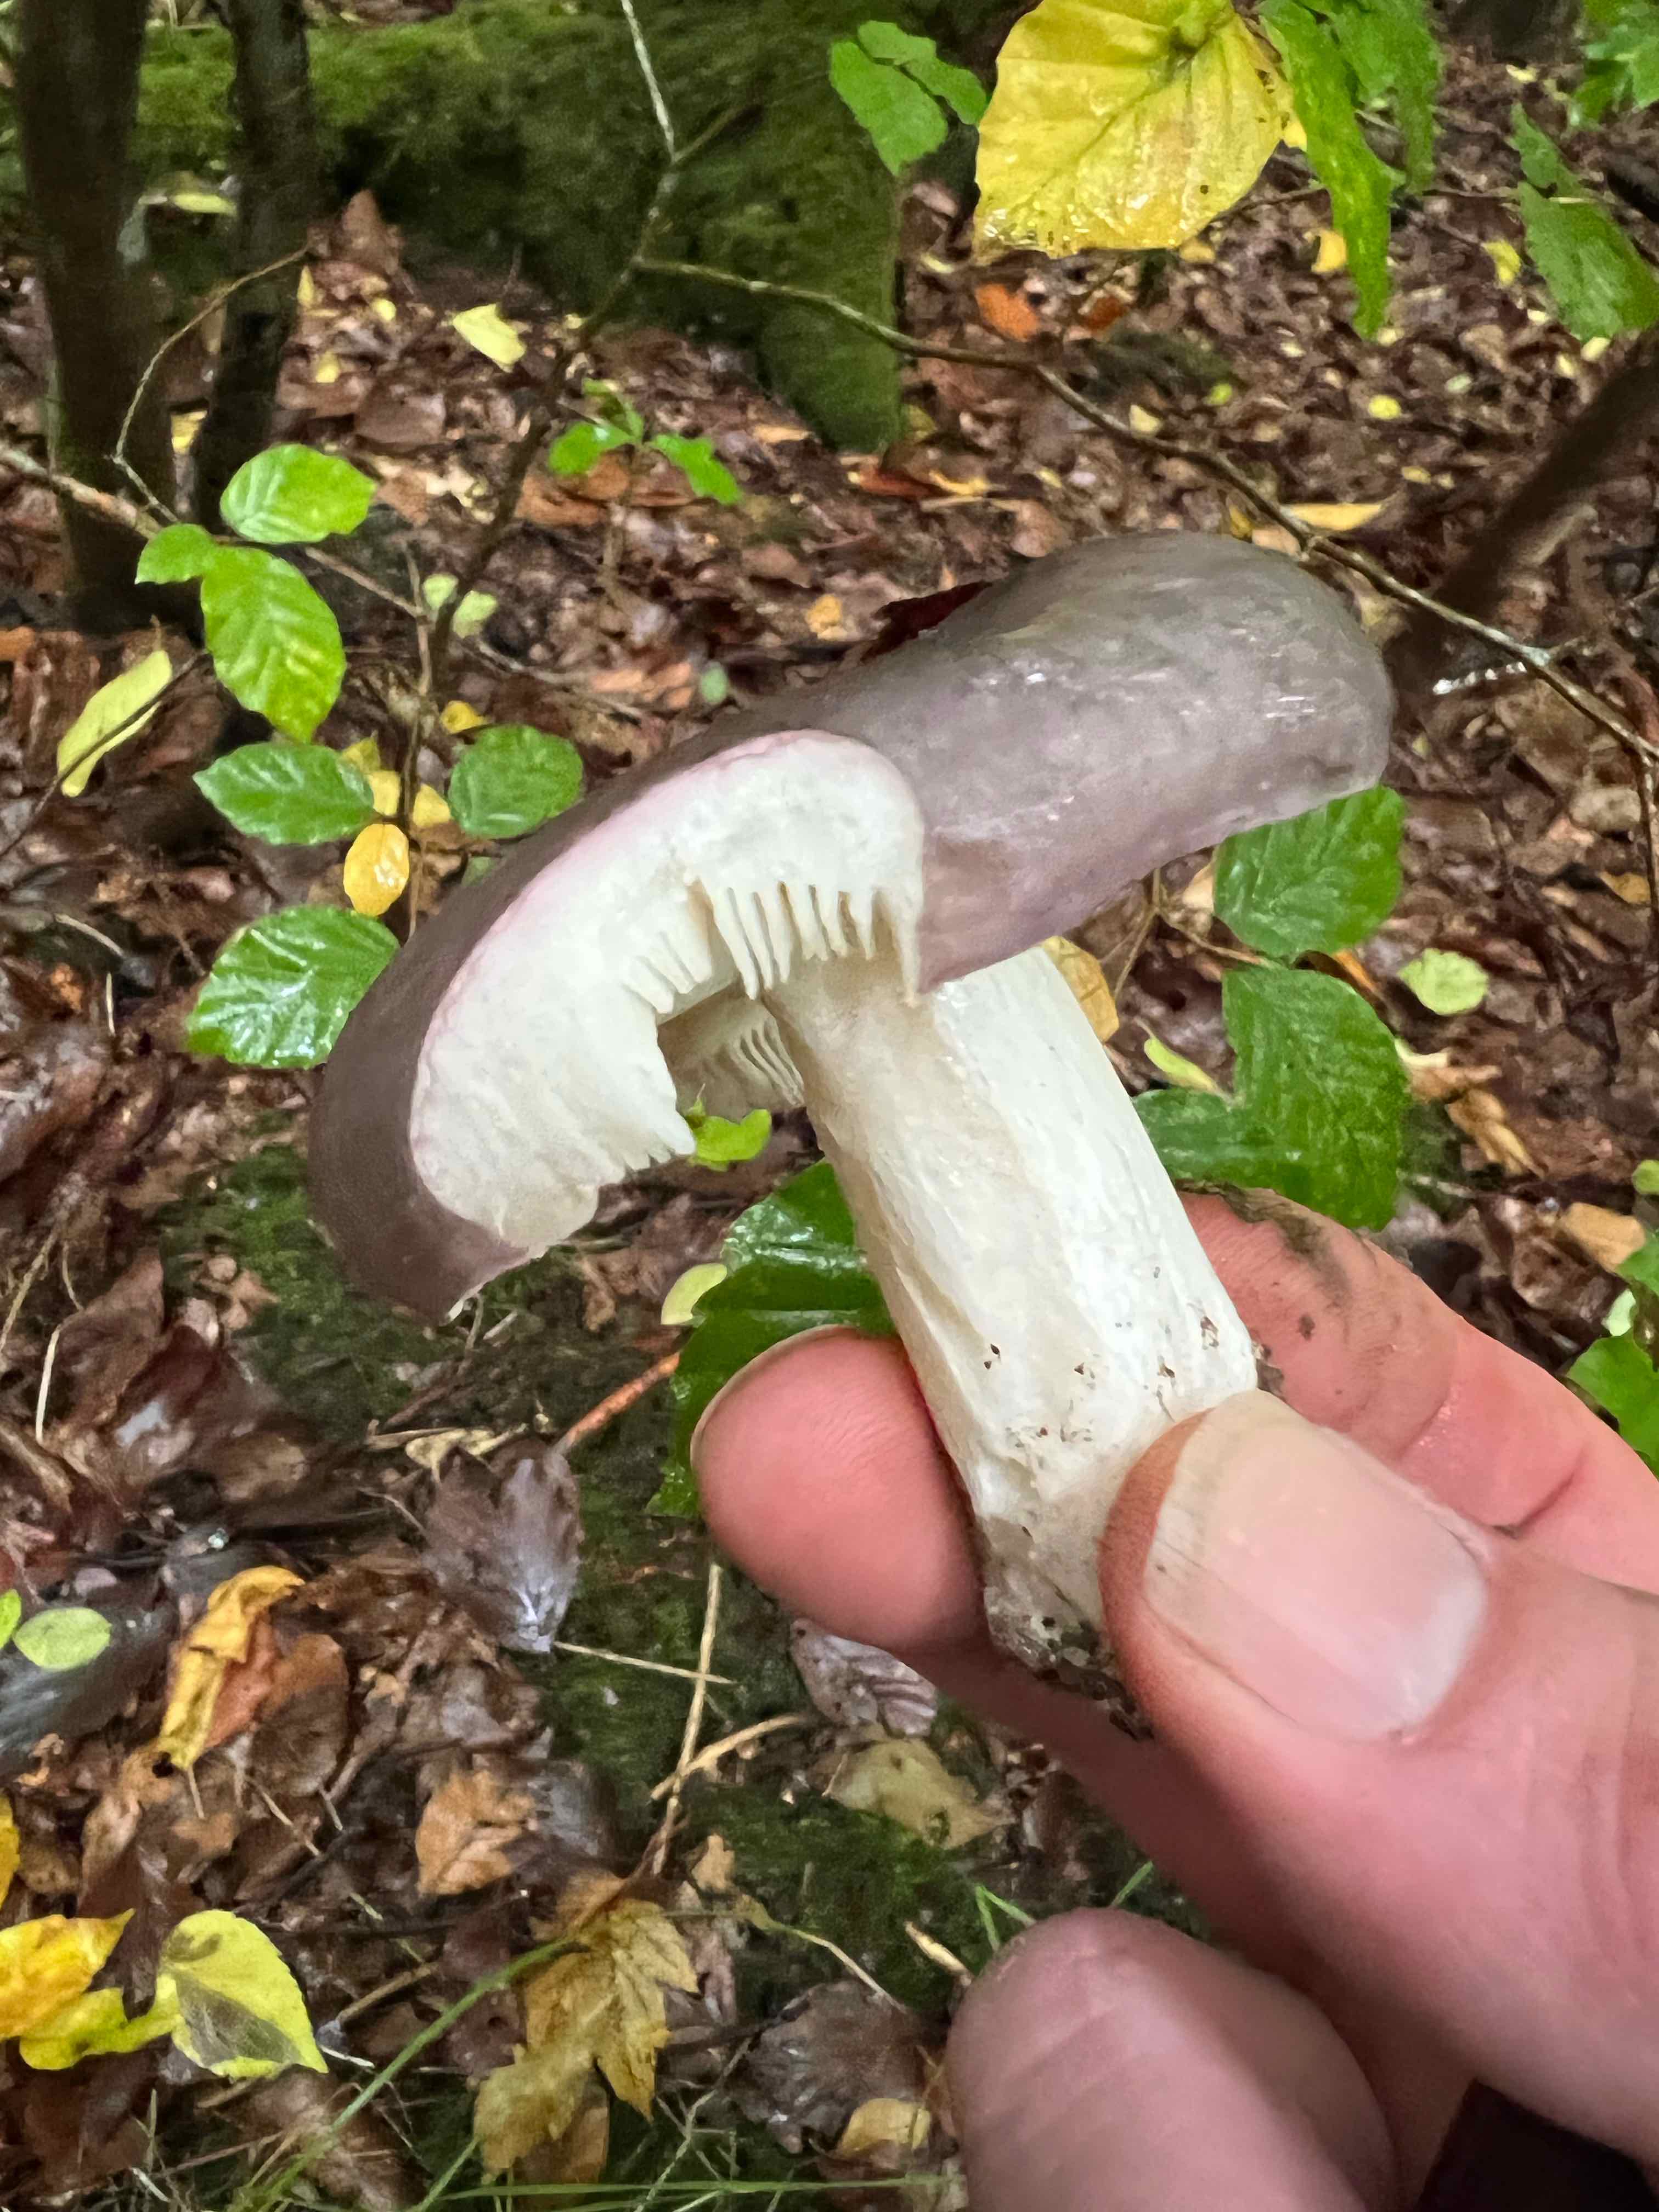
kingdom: Fungi
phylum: Basidiomycota
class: Agaricomycetes
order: Russulales
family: Russulaceae
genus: Russula
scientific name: Russula
